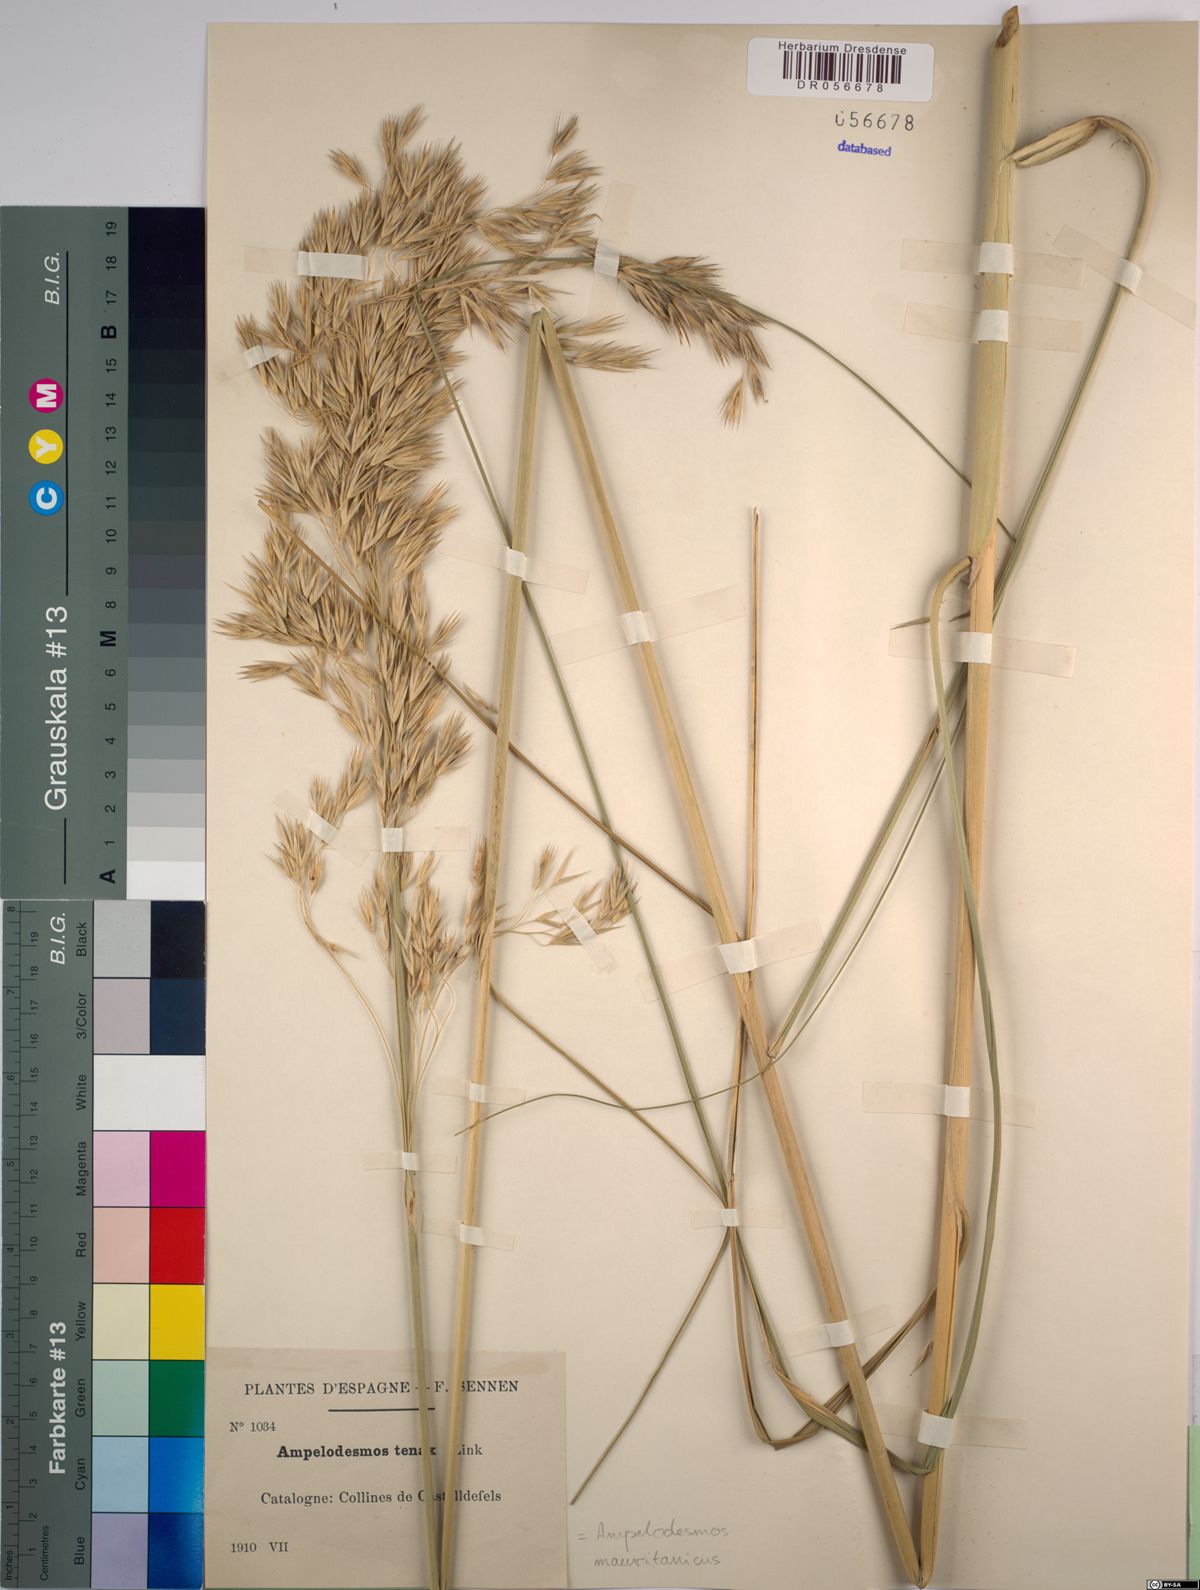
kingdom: Plantae
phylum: Tracheophyta
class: Liliopsida
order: Poales
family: Poaceae
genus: Ampelodesmos
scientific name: Ampelodesmos mauritanicus
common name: Mauritanian grass
